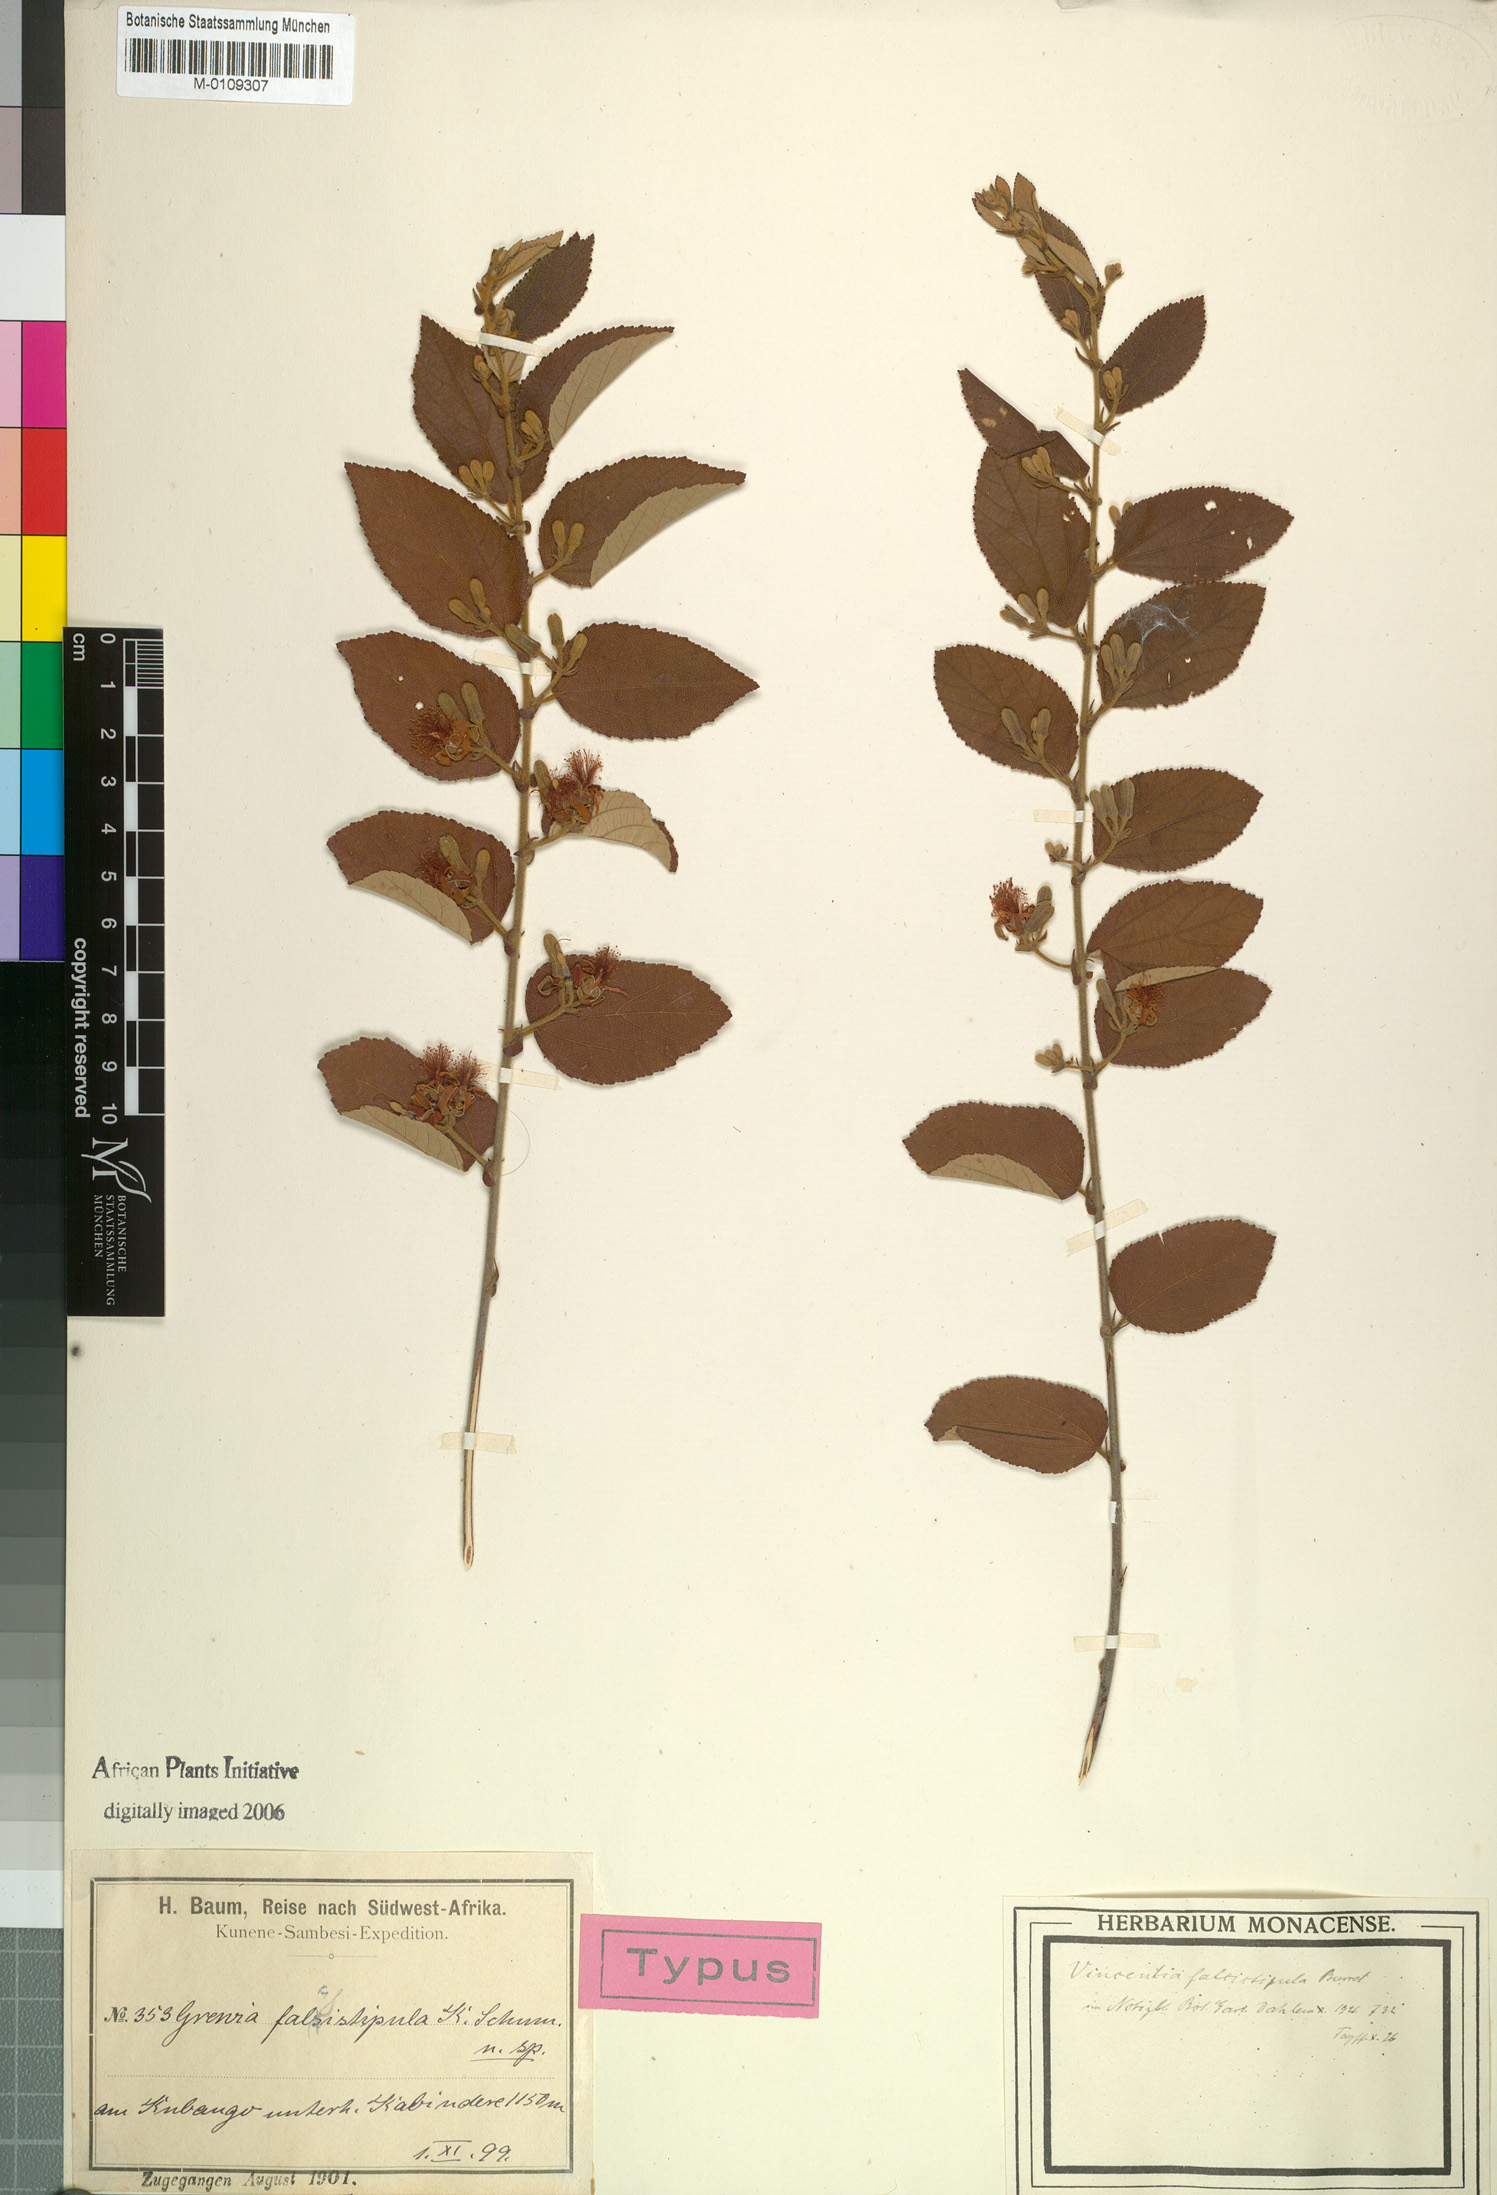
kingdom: Plantae
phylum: Tracheophyta
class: Magnoliopsida
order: Malvales
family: Malvaceae
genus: Grewia
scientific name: Grewia falcistipula
